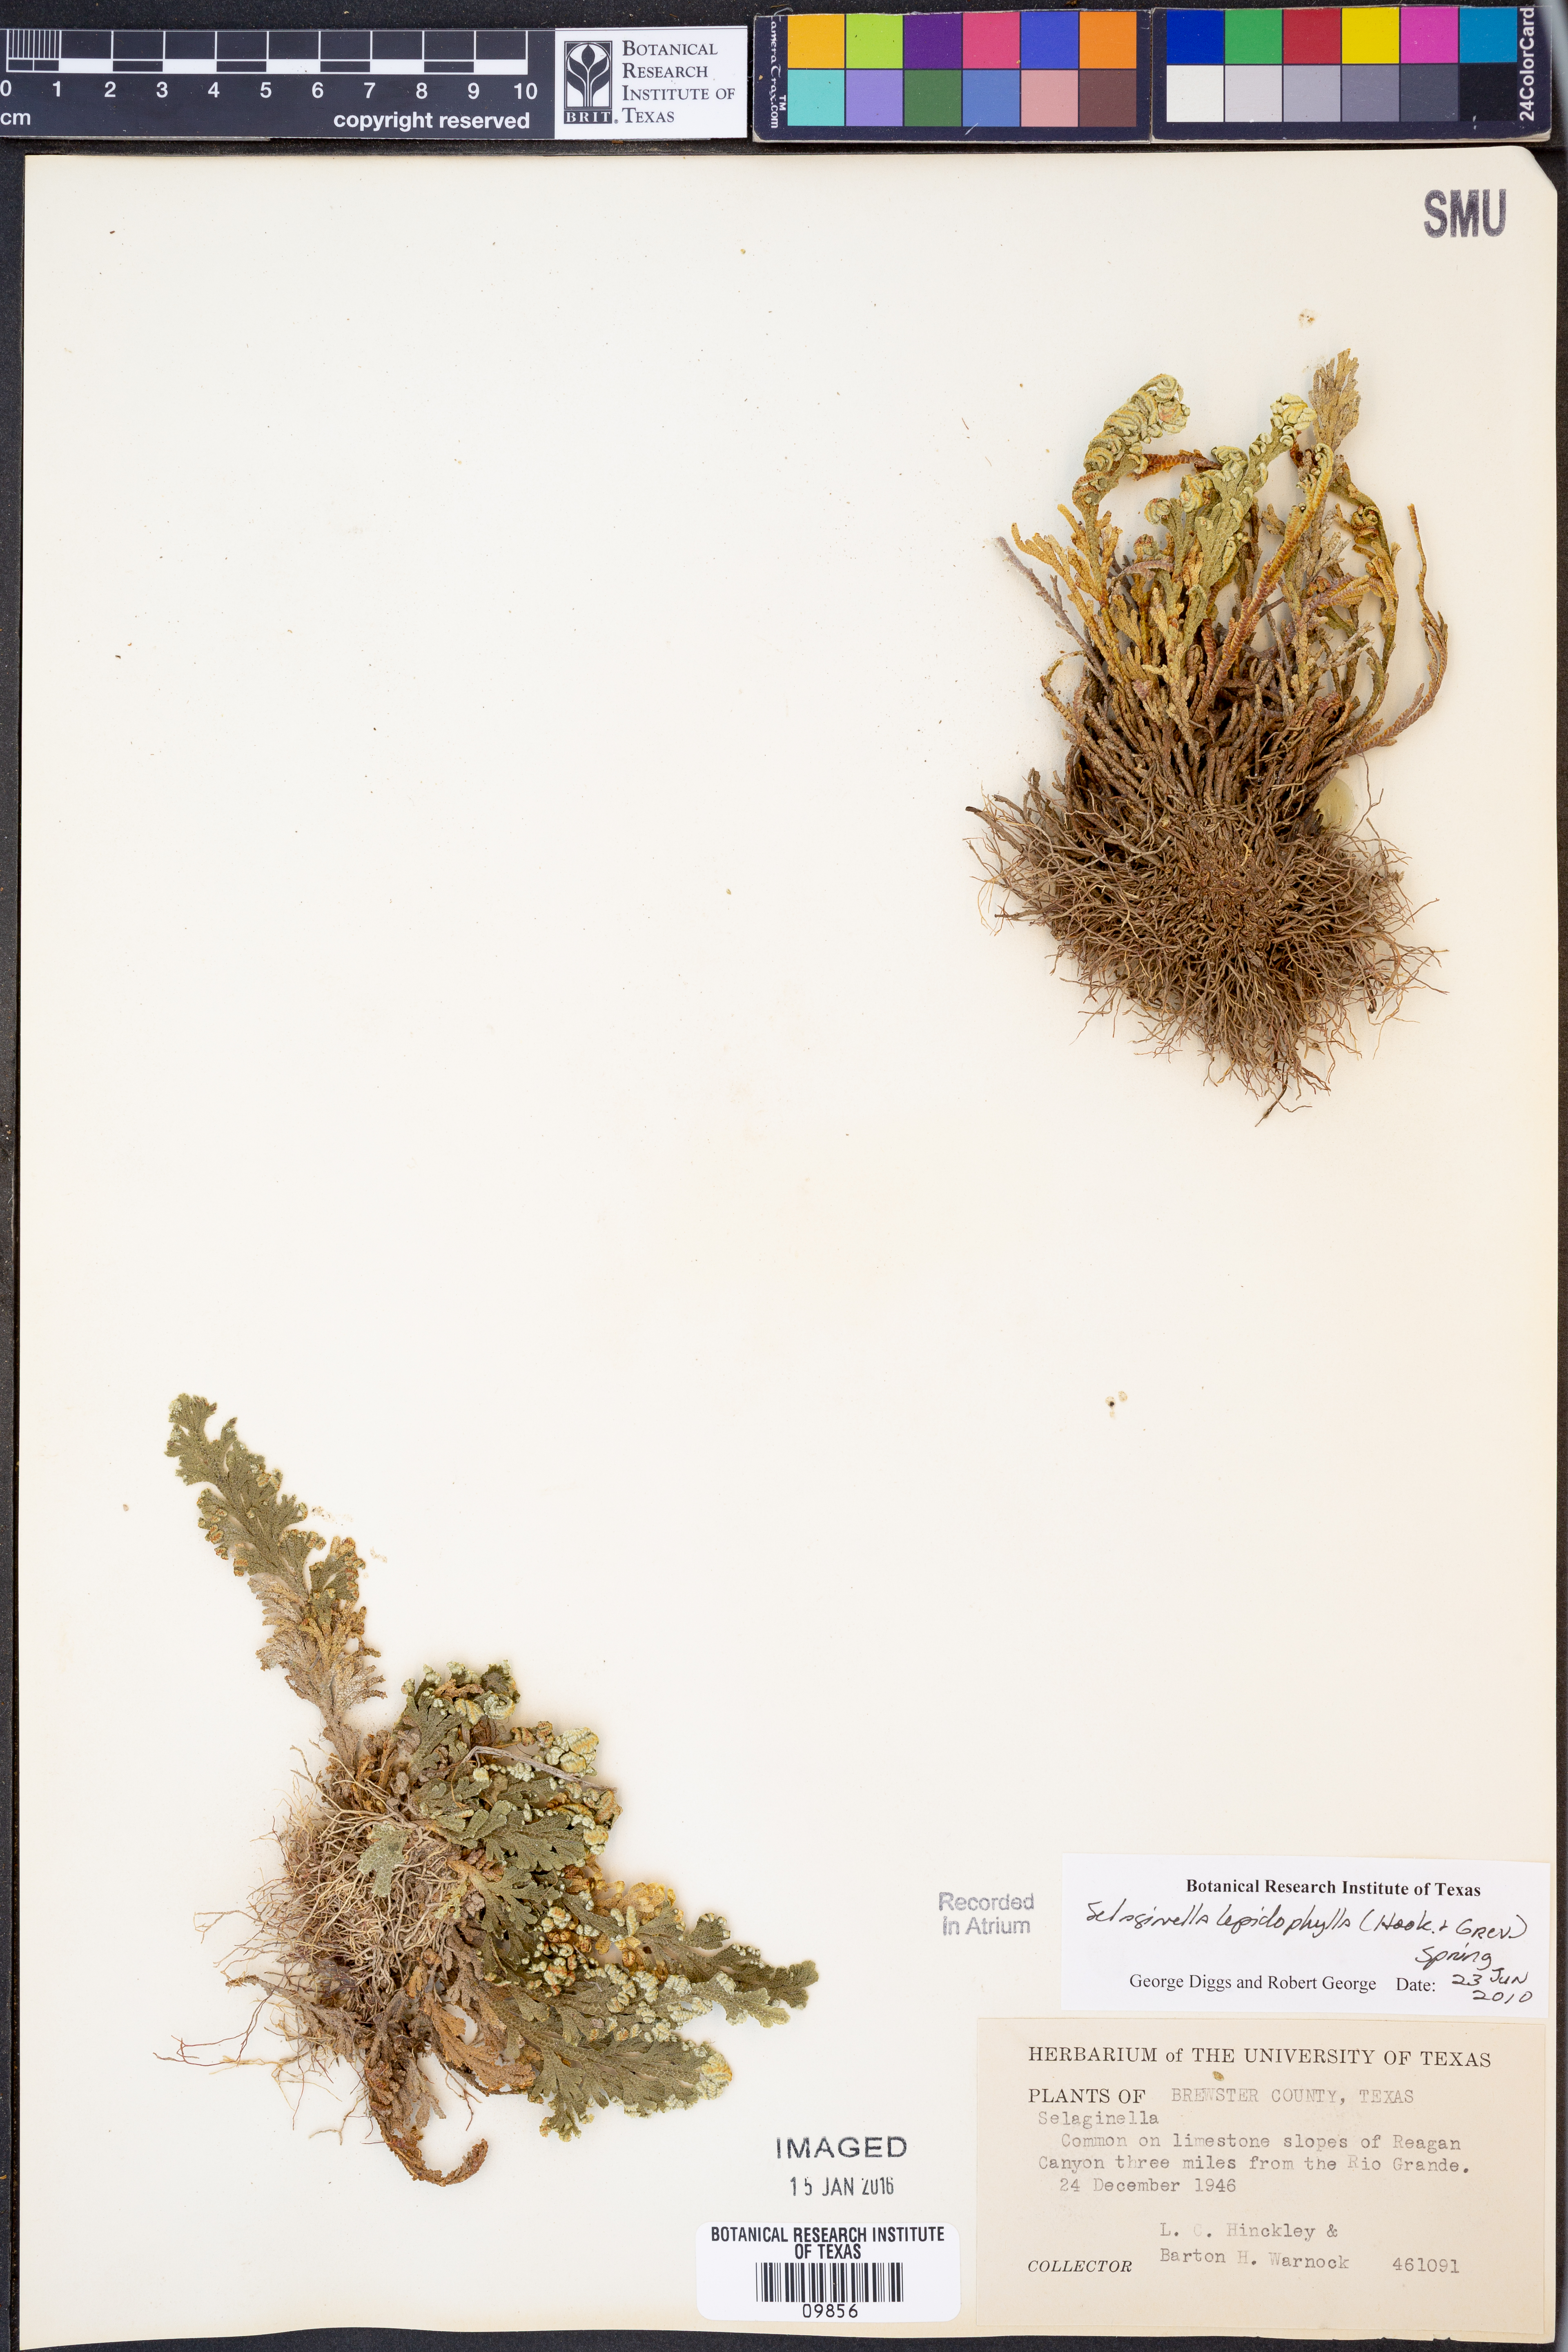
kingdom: Plantae
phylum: Tracheophyta
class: Lycopodiopsida
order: Selaginellales
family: Selaginellaceae
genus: Selaginella
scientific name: Selaginella lepidophylla
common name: Rose-of-jericho
